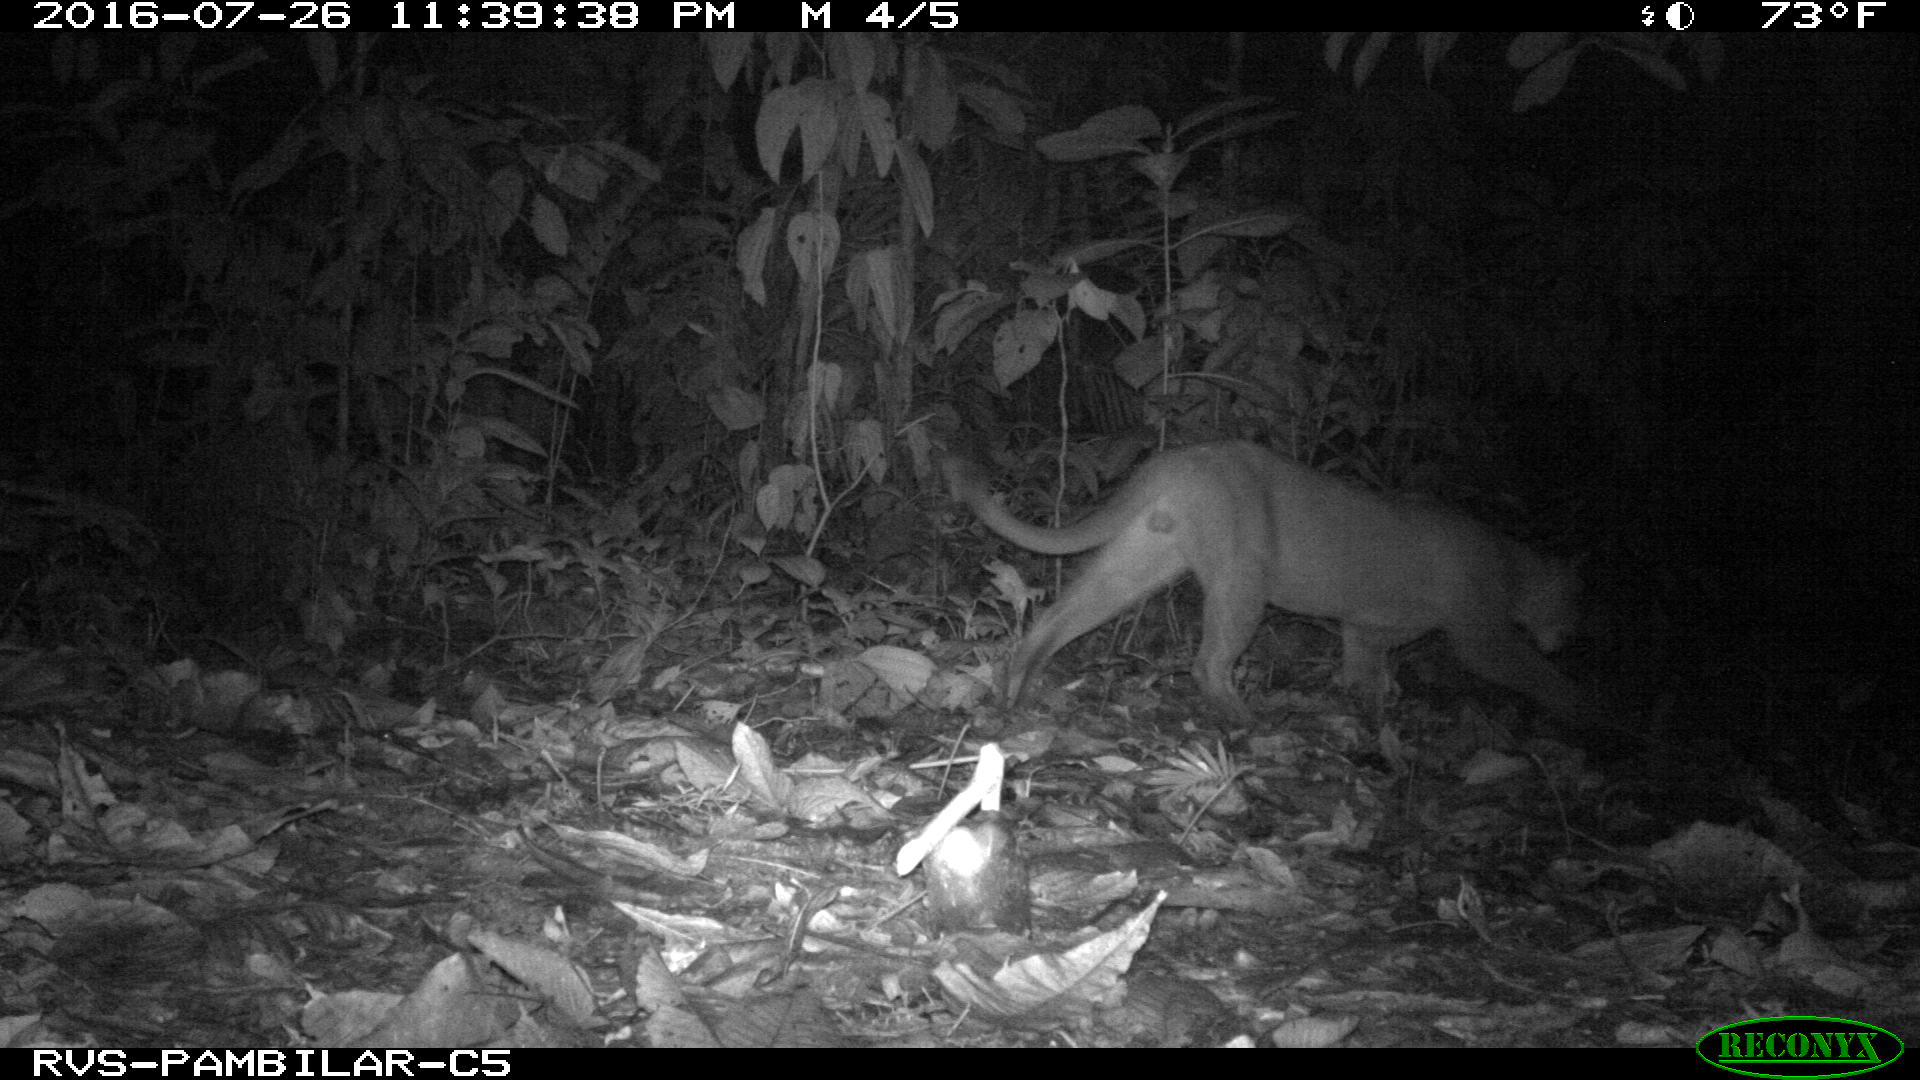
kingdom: Animalia
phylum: Chordata
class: Mammalia
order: Carnivora
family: Felidae
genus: Puma
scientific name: Puma concolor
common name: Puma
